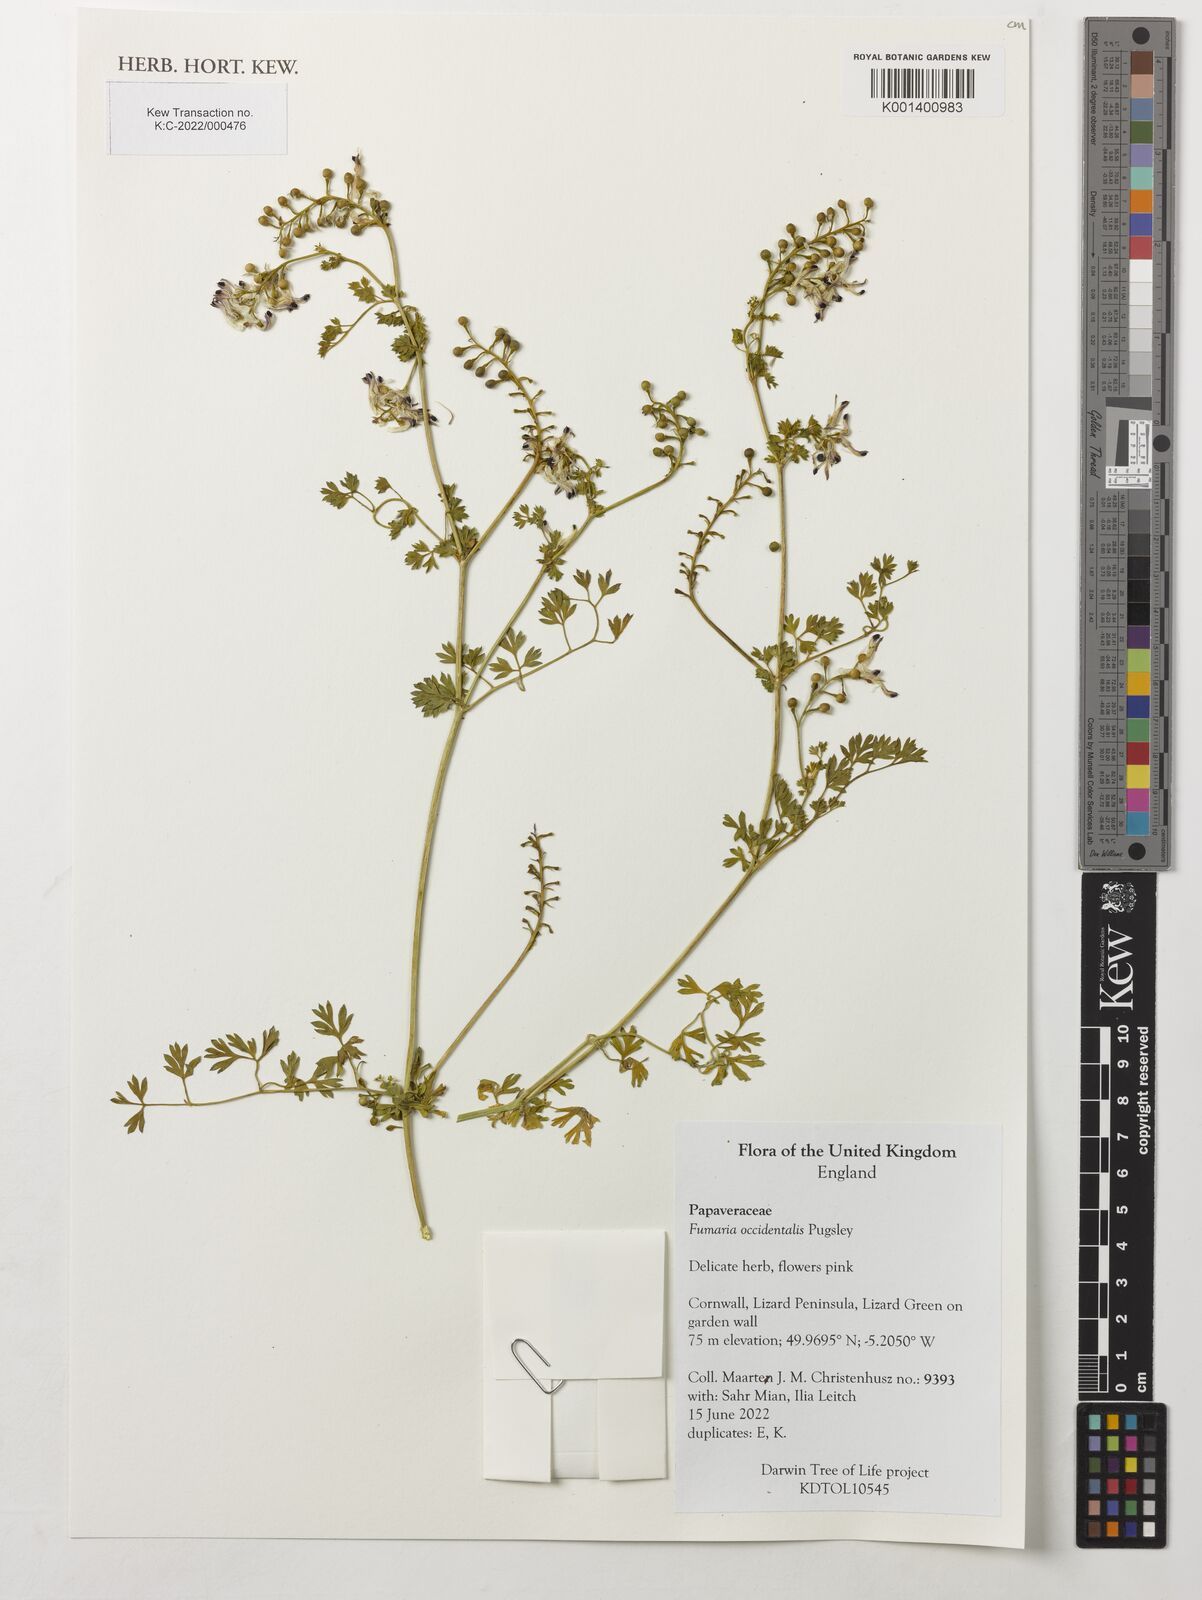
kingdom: Plantae
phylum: Tracheophyta
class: Magnoliopsida
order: Ranunculales
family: Papaveraceae
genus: Fumaria
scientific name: Fumaria occidentalis
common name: Western ramping-fumitory
